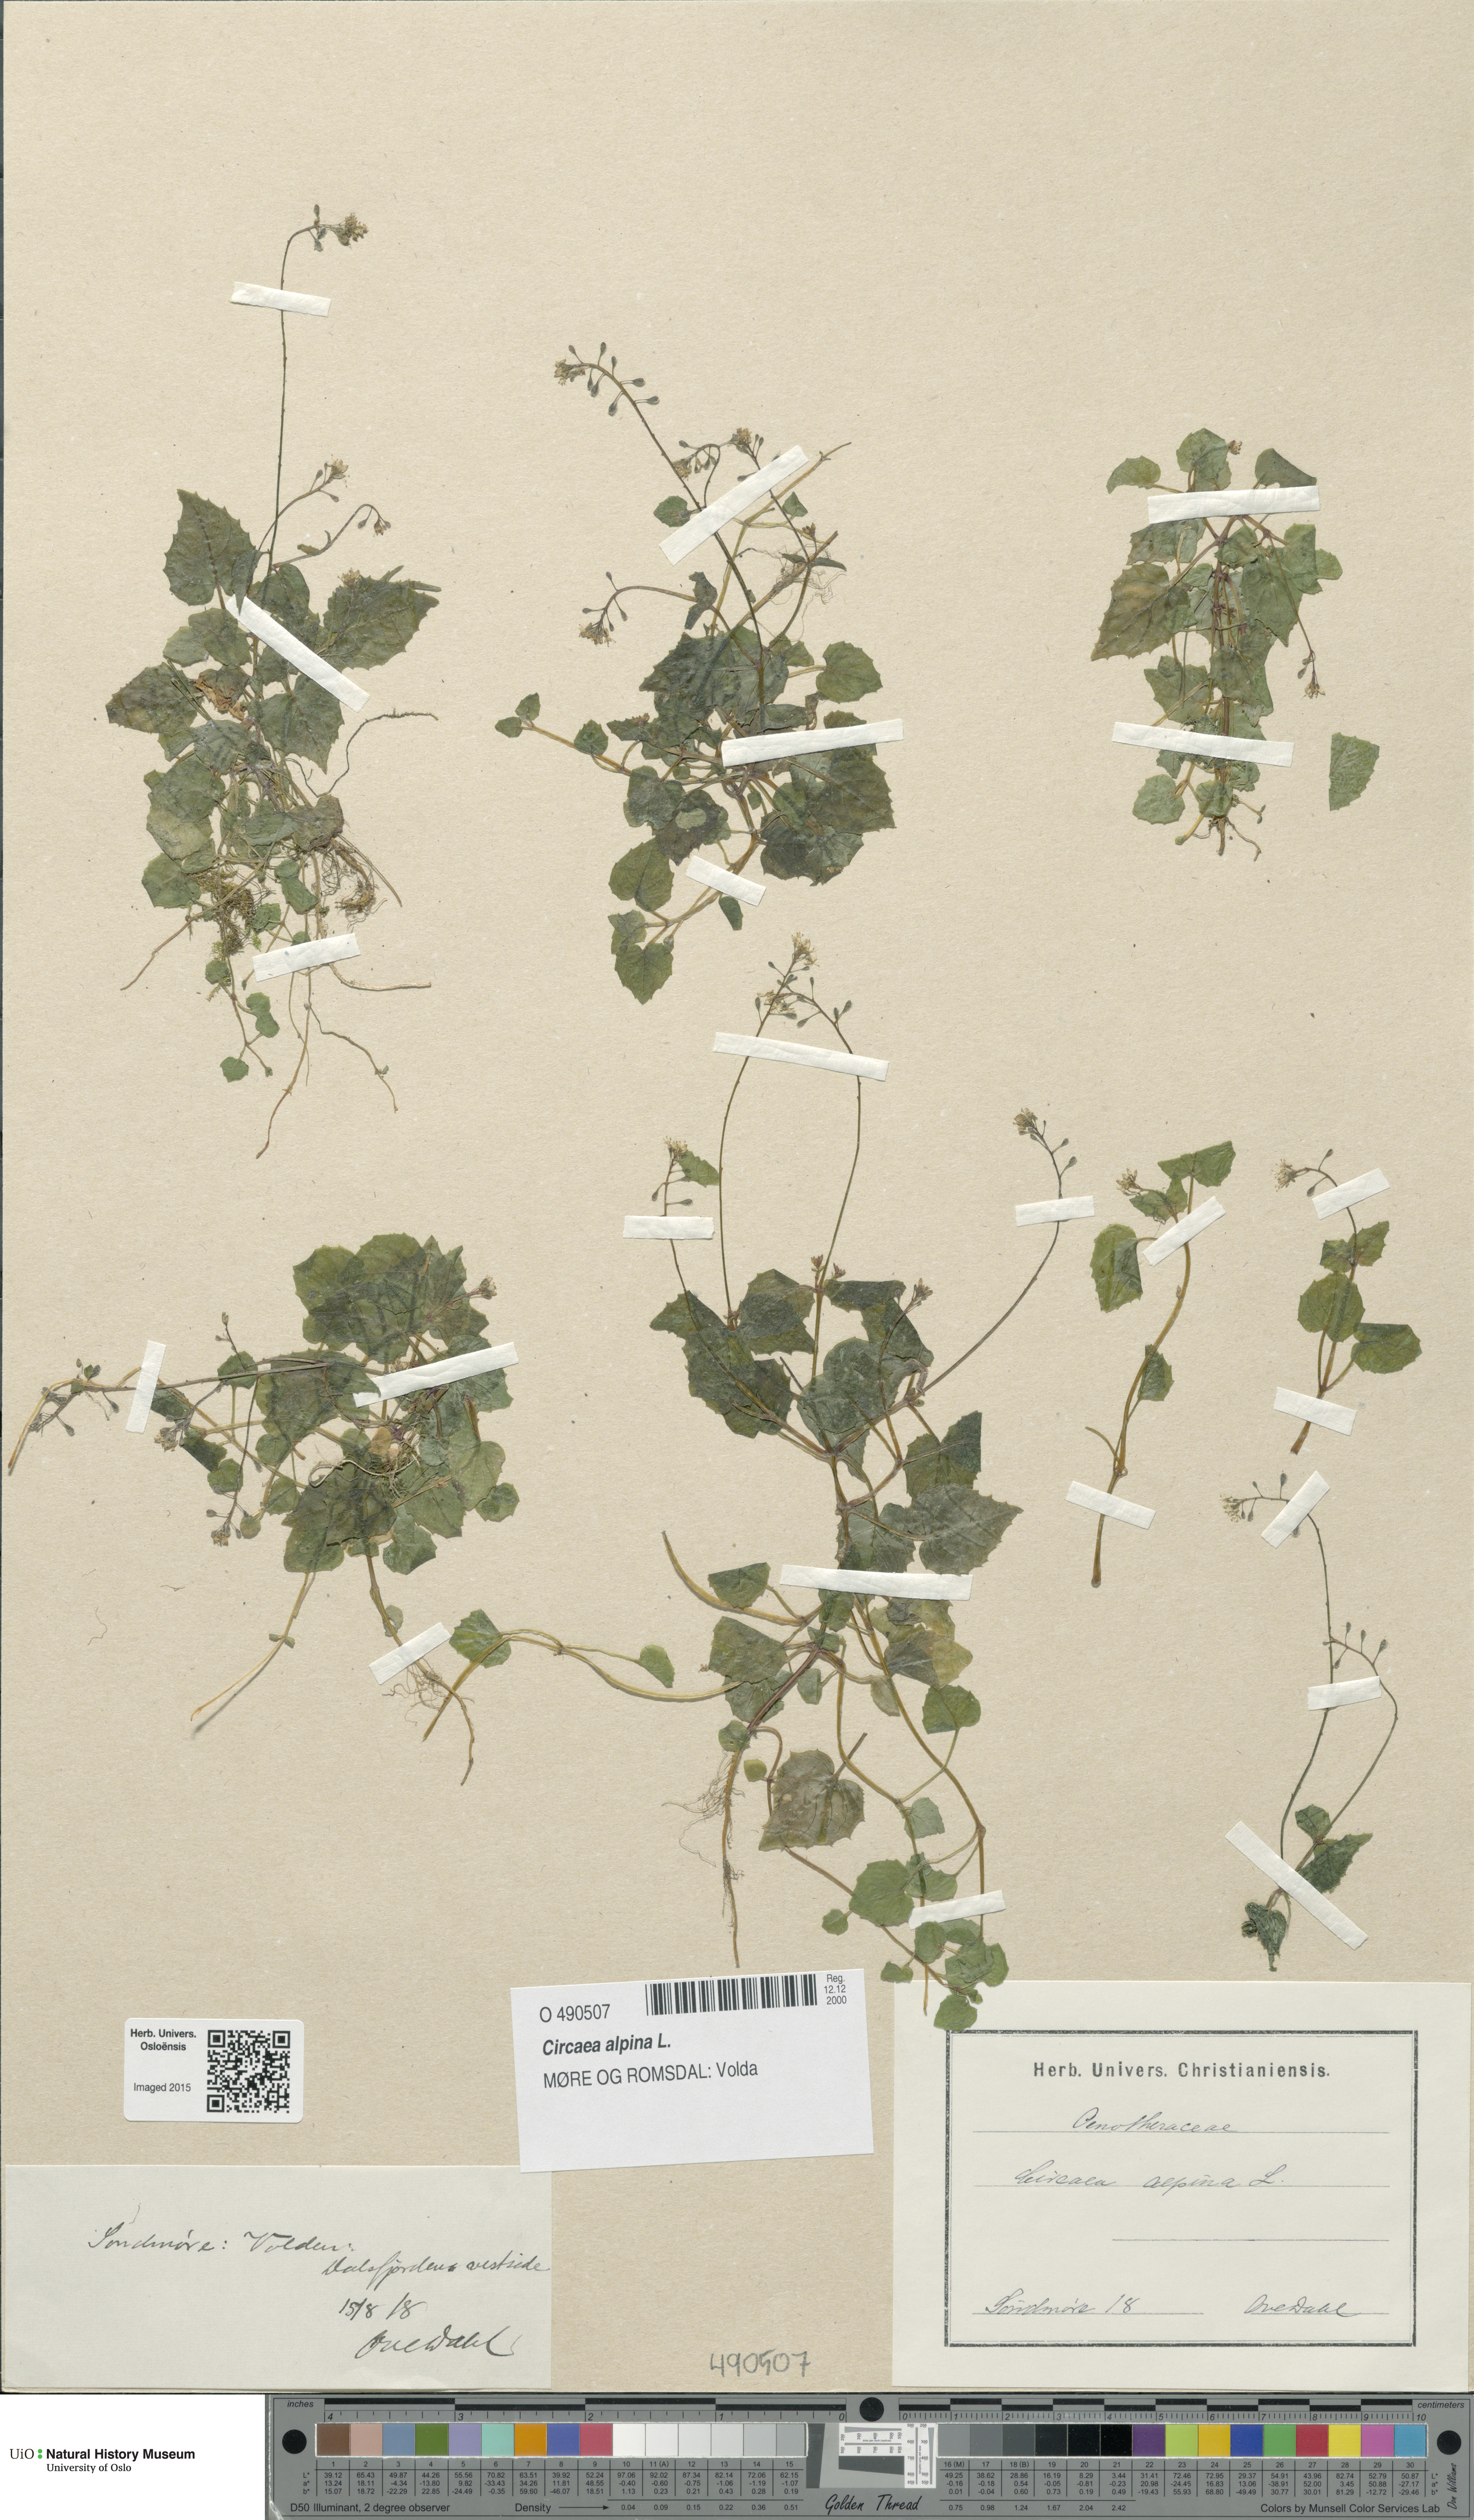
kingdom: Plantae
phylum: Tracheophyta
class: Magnoliopsida
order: Myrtales
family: Onagraceae
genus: Circaea
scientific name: Circaea alpina
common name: Alpine enchanter's-nightshade
